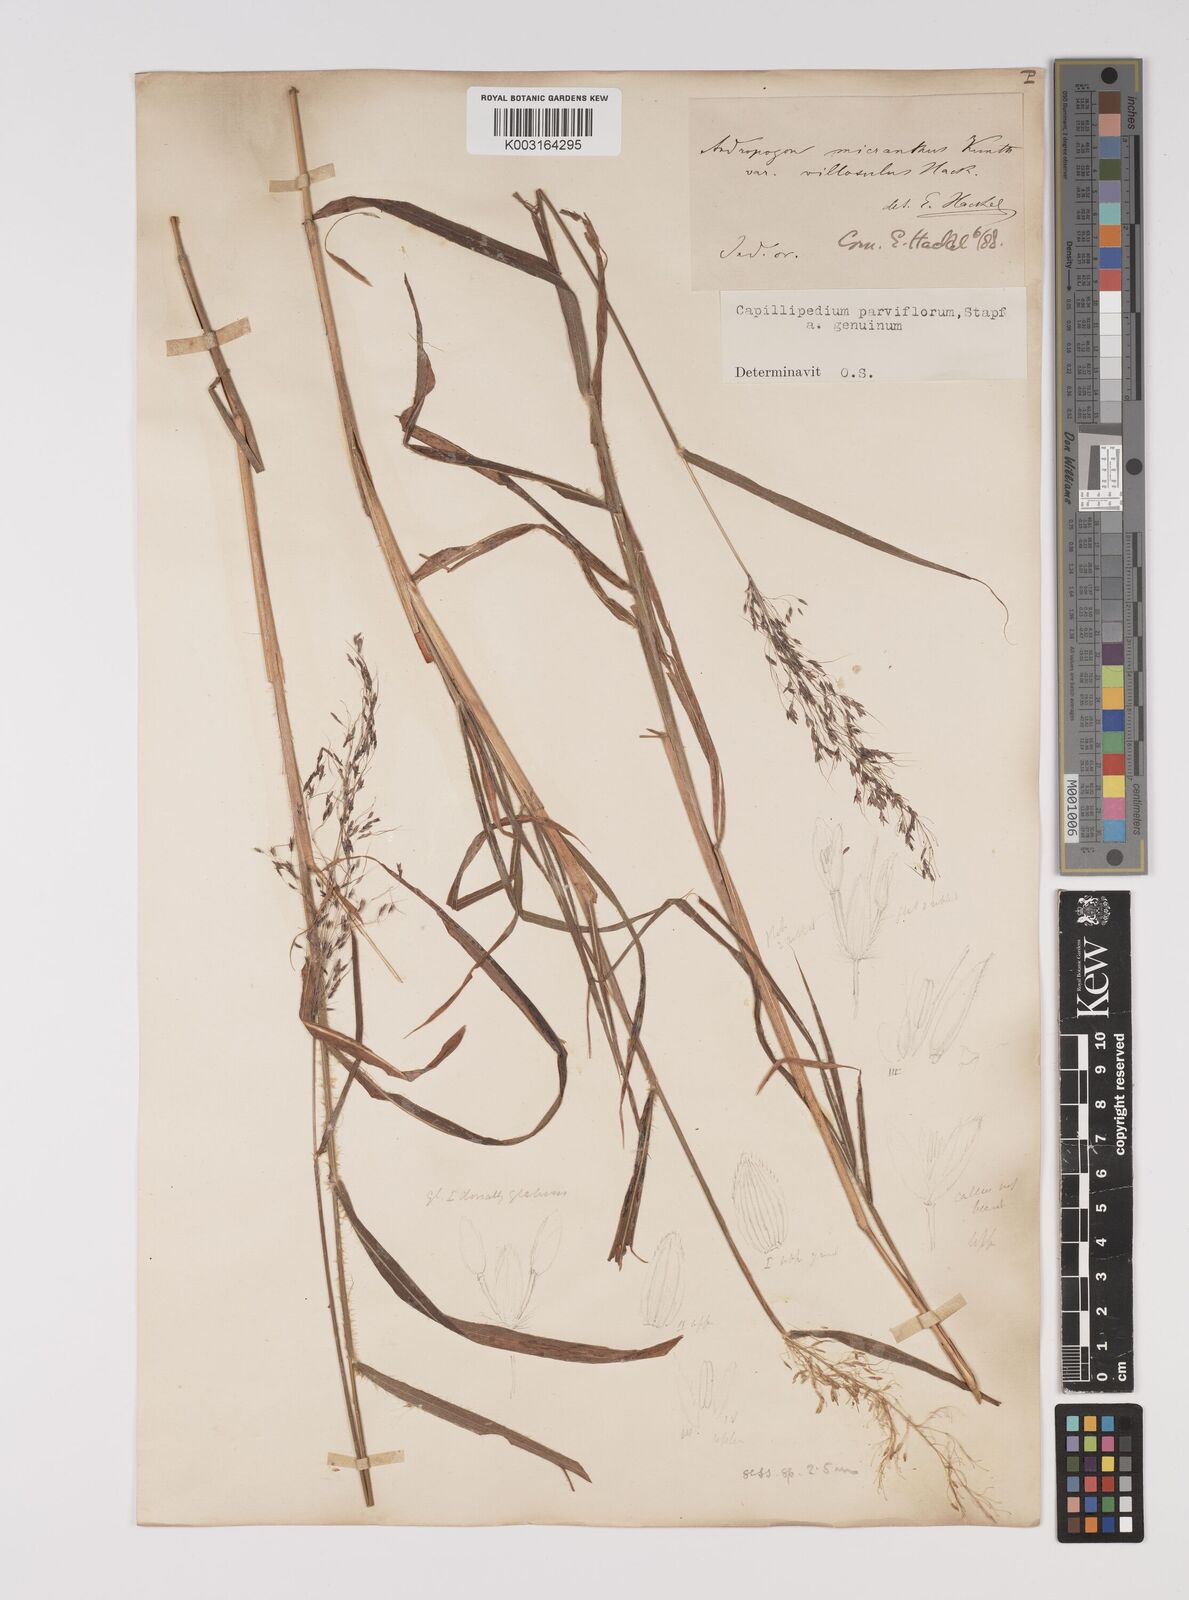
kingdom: Plantae
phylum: Tracheophyta
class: Liliopsida
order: Poales
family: Poaceae
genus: Capillipedium
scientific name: Capillipedium parviflorum
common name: Golden-beard
